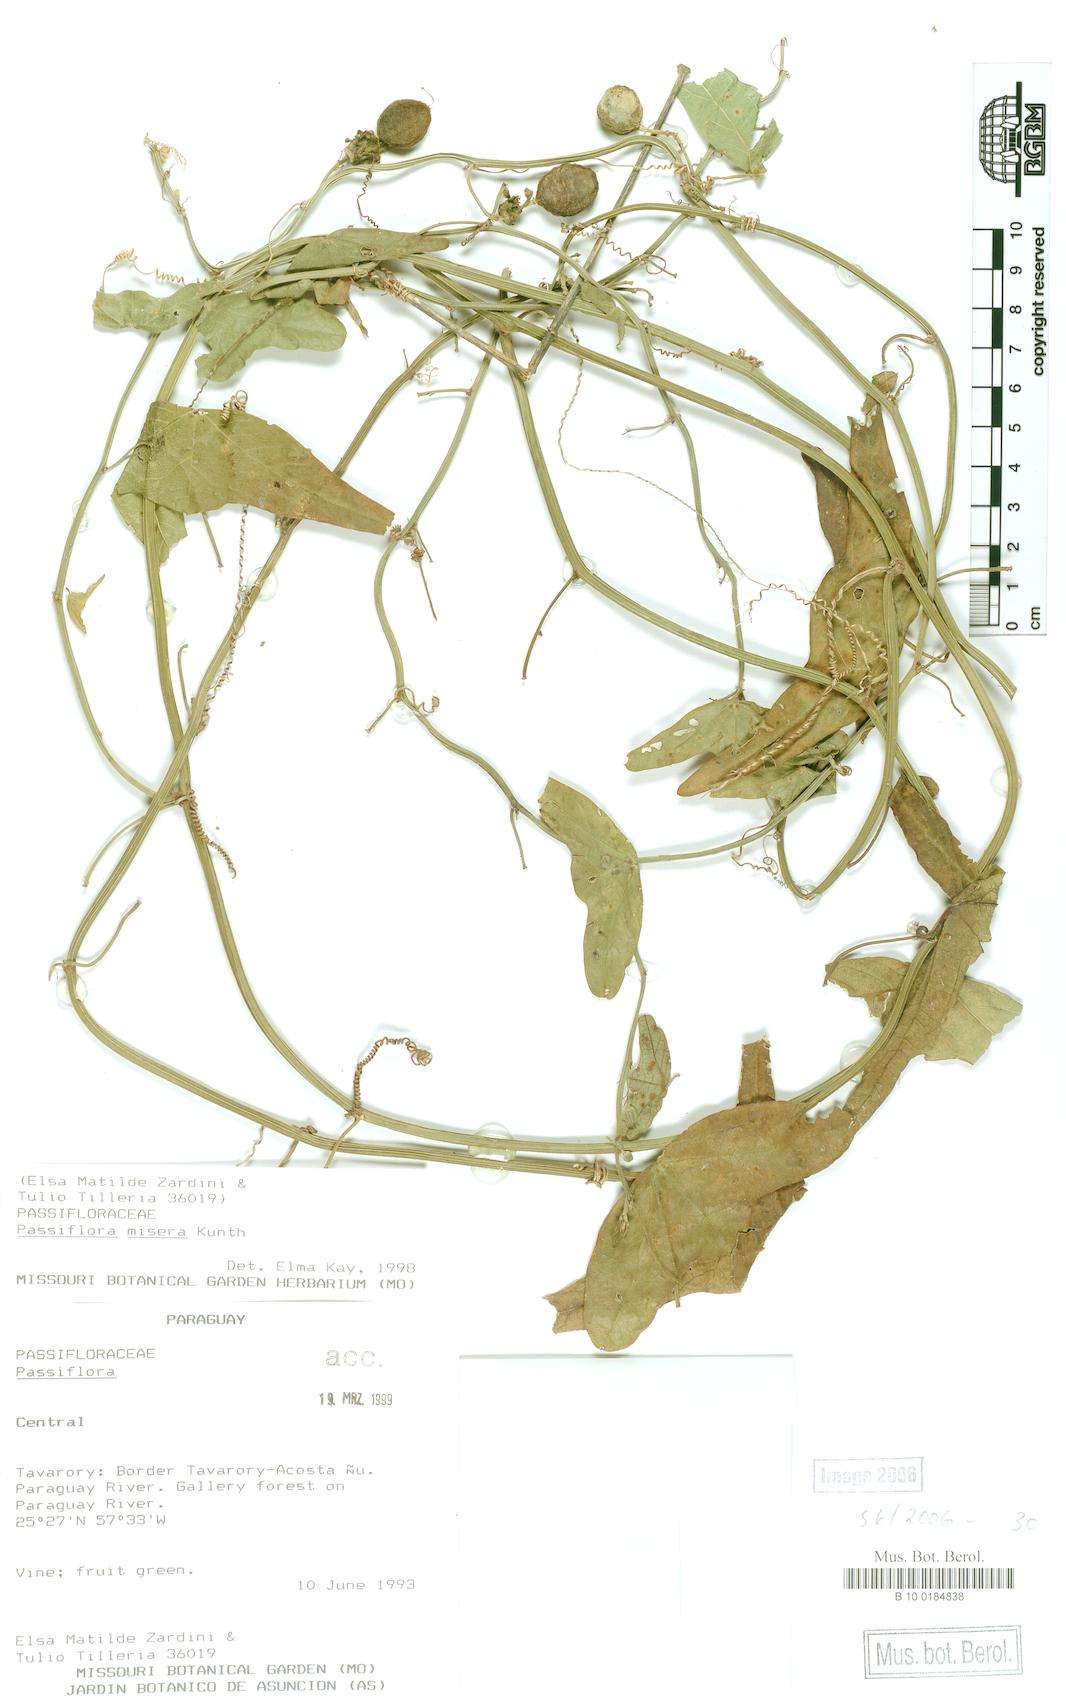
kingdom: Plantae
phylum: Tracheophyta
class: Magnoliopsida
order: Malpighiales
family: Passifloraceae
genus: Passiflora
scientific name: Passiflora misera
